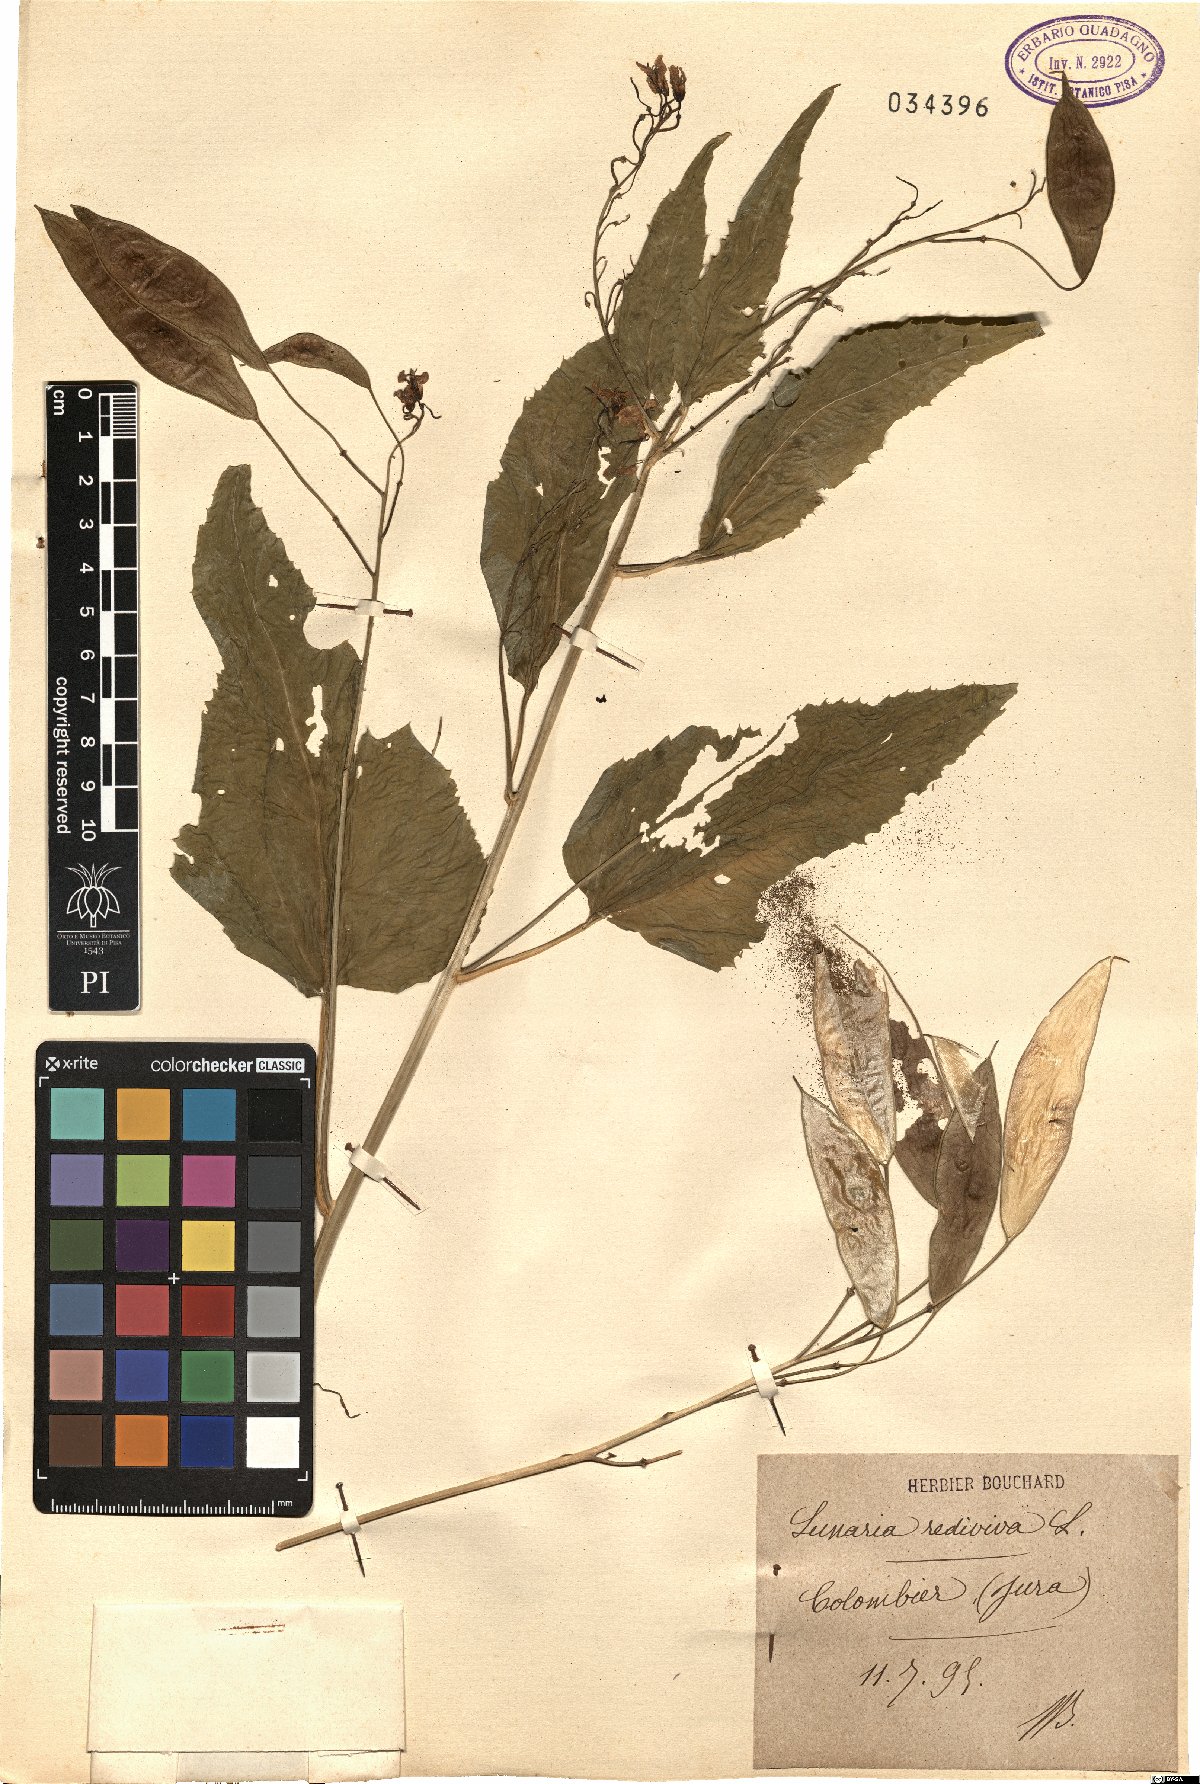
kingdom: Plantae
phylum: Tracheophyta
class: Magnoliopsida
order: Brassicales
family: Brassicaceae
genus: Lunaria
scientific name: Lunaria rediviva
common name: Perennial honesty
